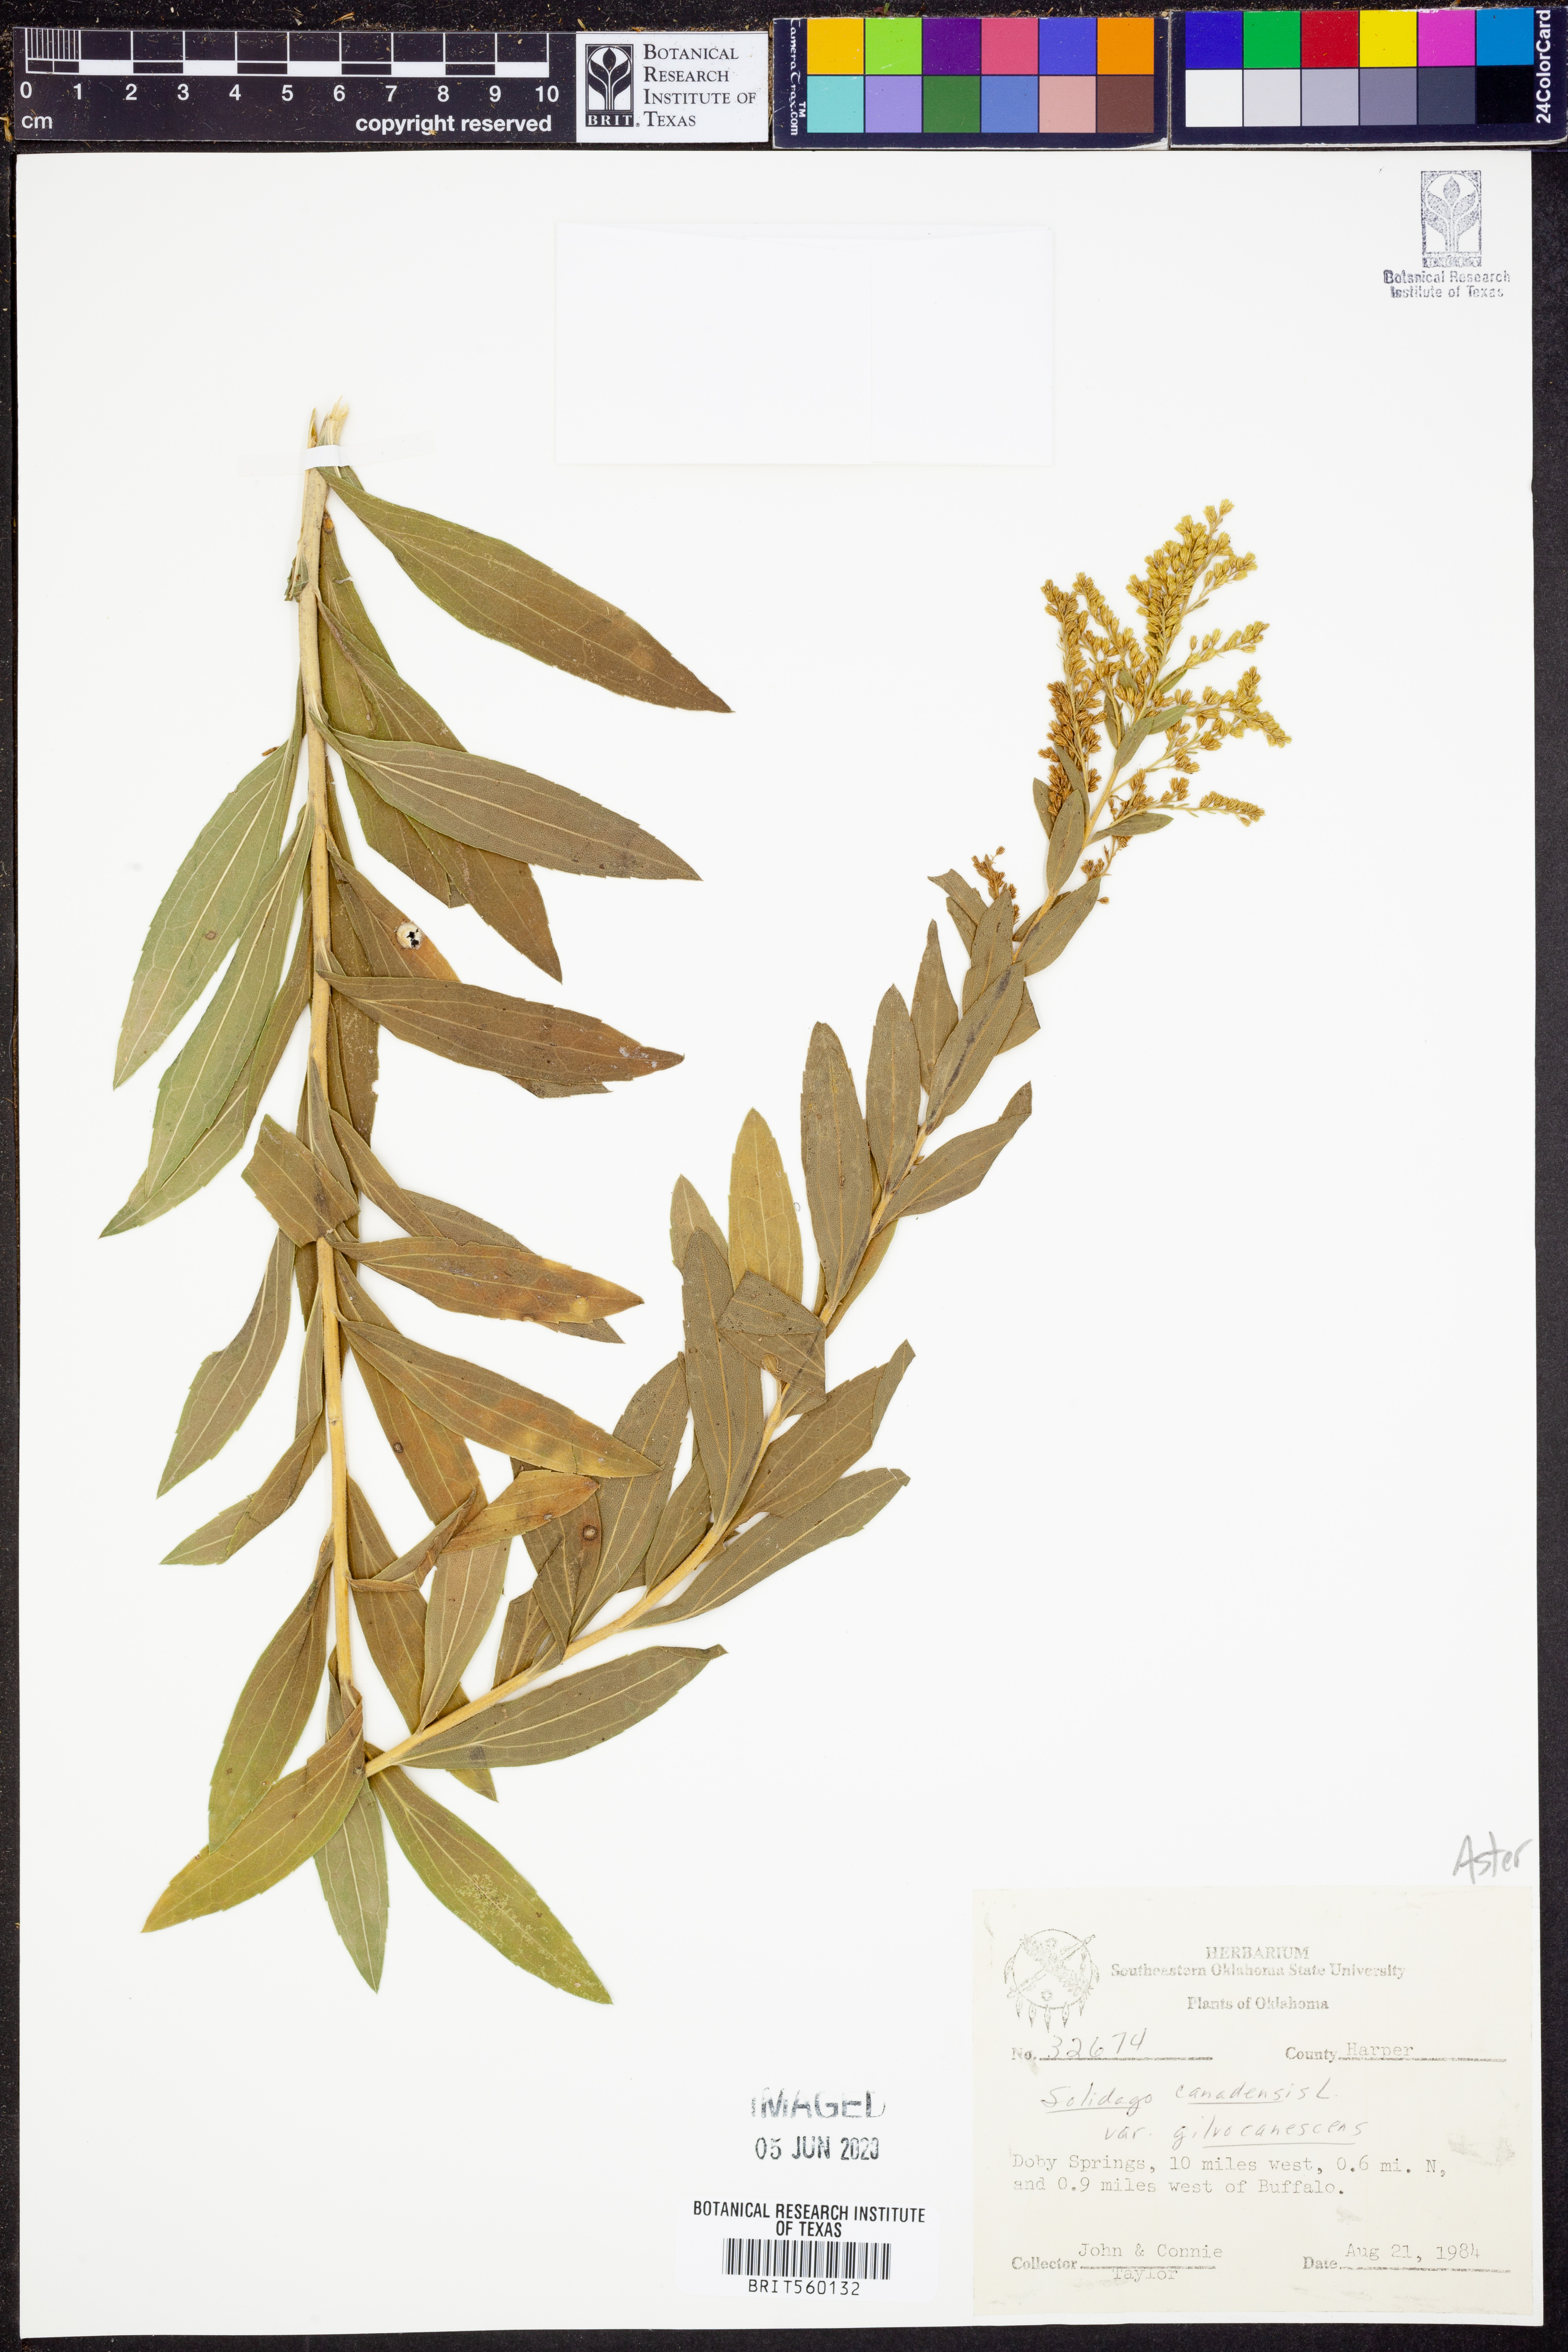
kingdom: Plantae
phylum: Tracheophyta
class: Magnoliopsida
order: Asterales
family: Asteraceae
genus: Solidago
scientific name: Solidago altissima
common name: Late goldenrod
